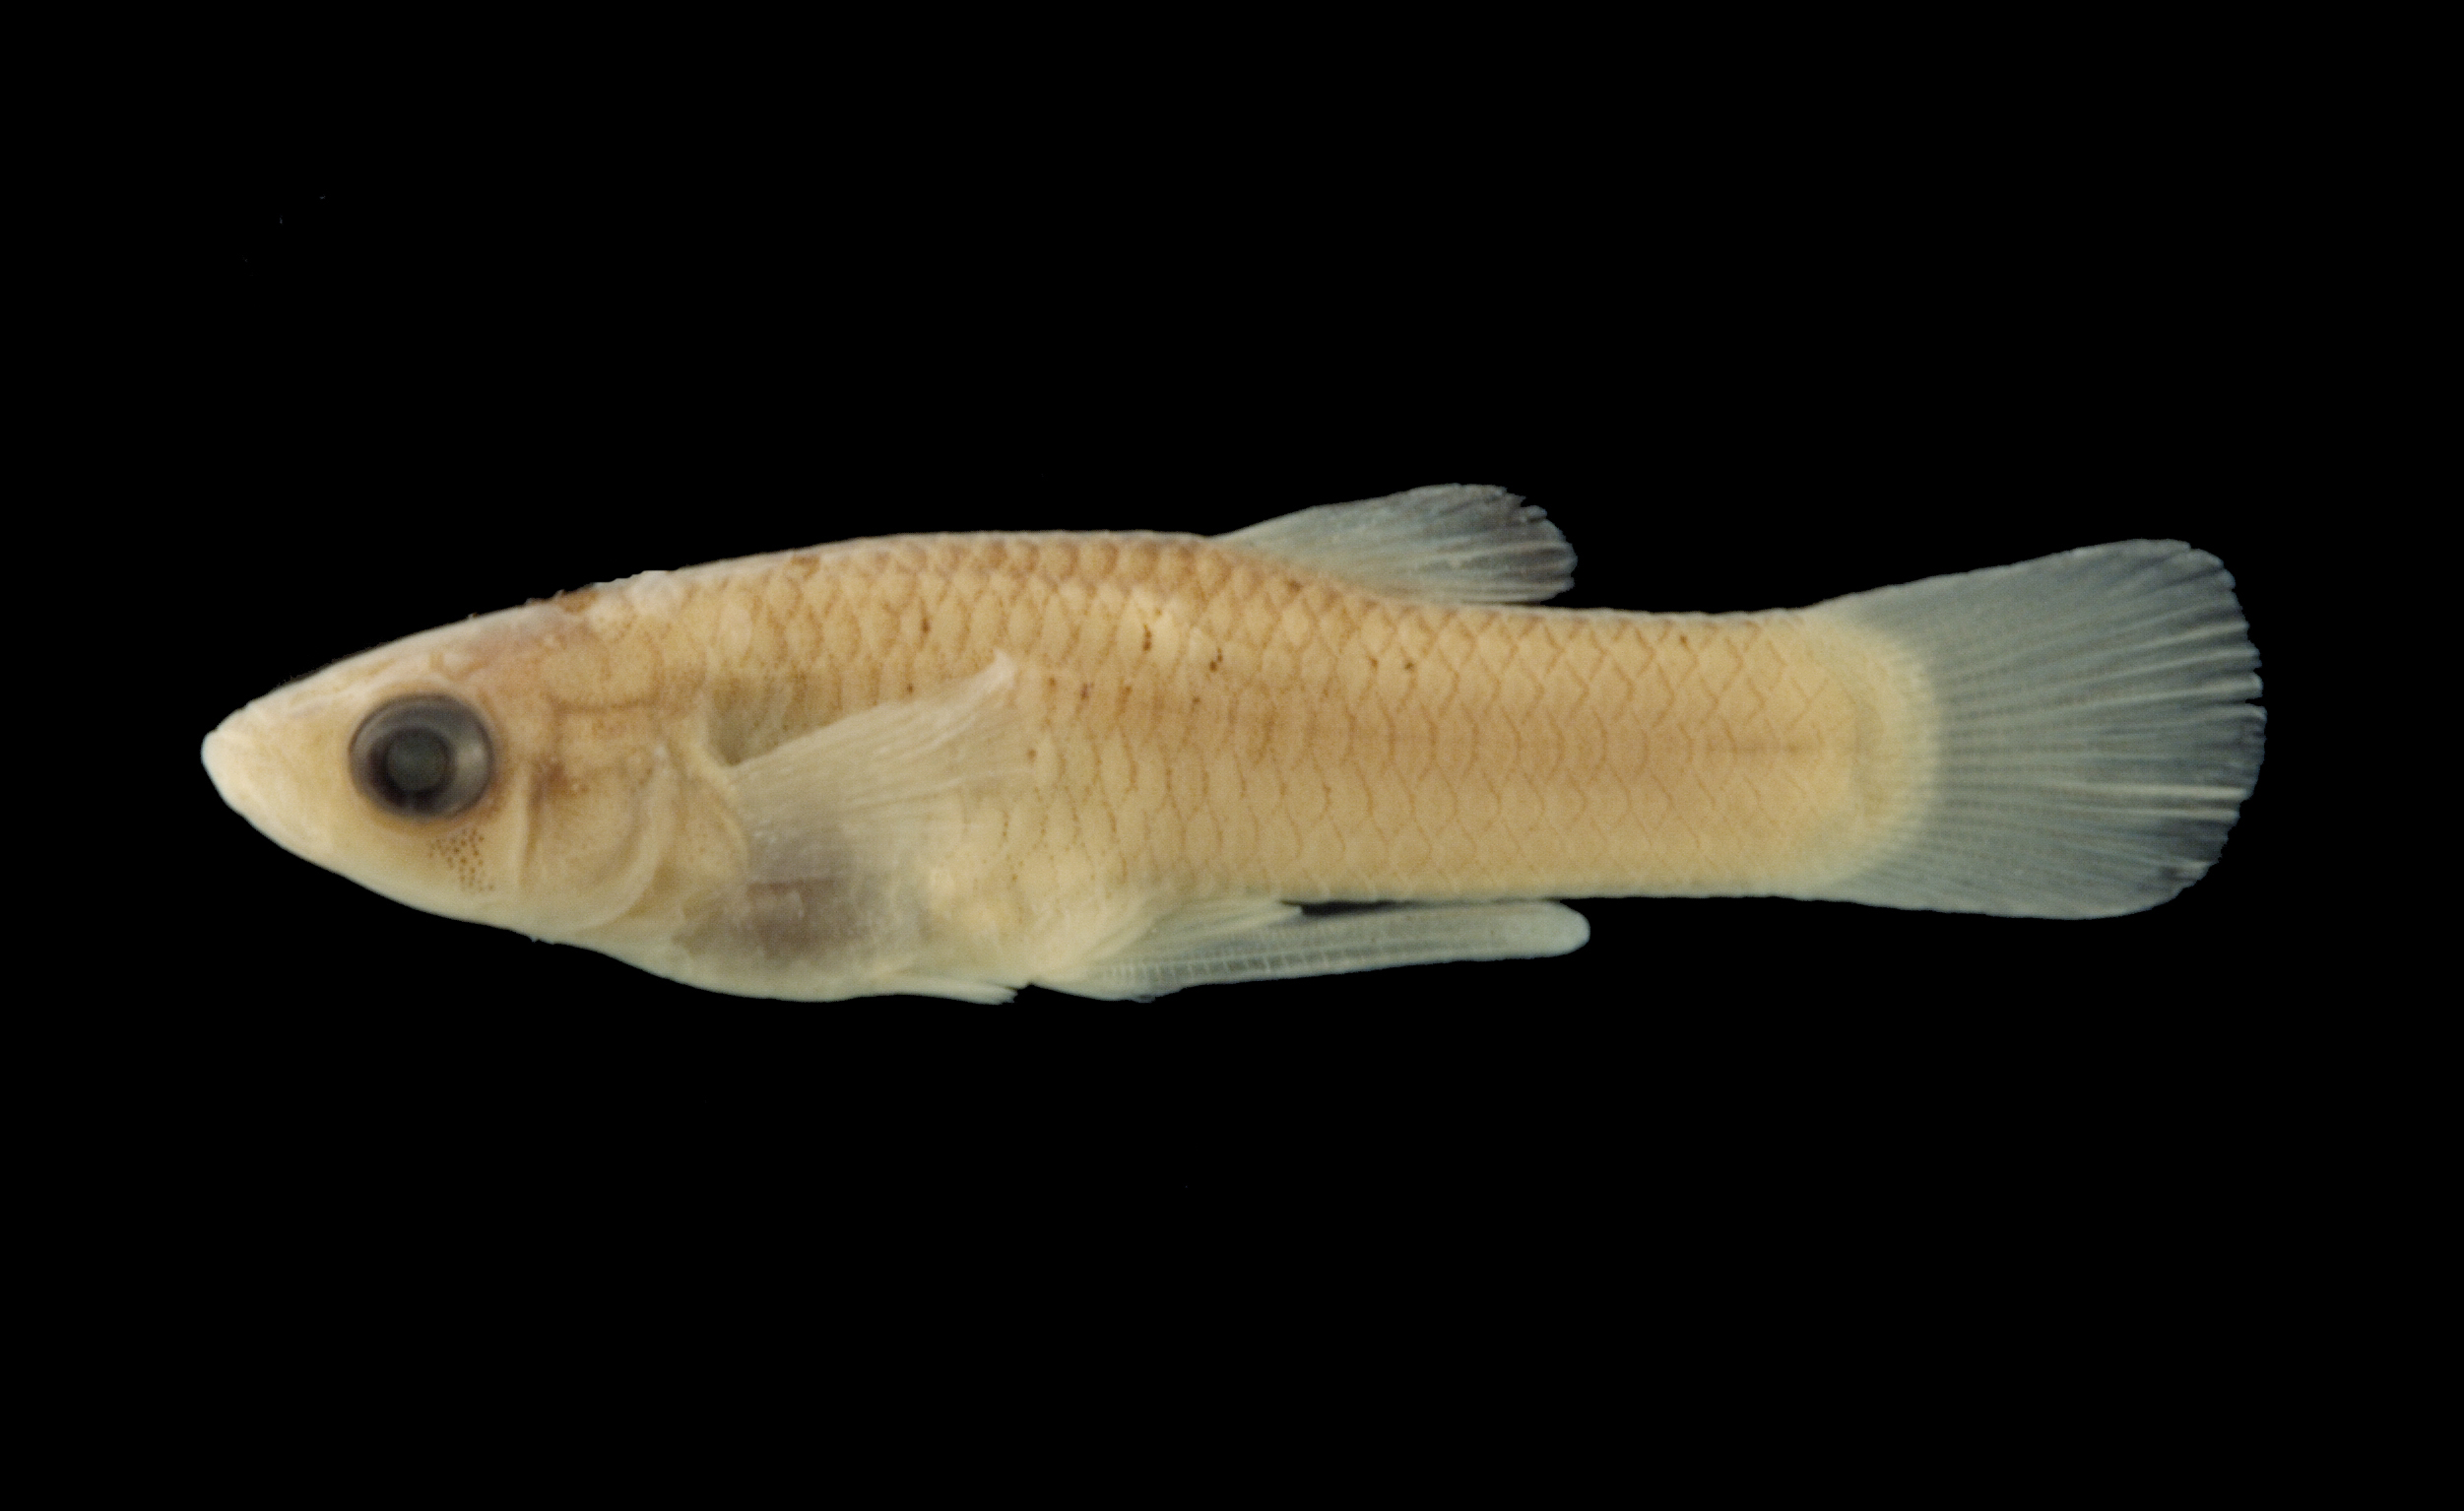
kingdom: Animalia
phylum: Chordata
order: Cyprinodontiformes
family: Poeciliidae
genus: Gambusia
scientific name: Gambusia senilis
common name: Blotched gambusia
